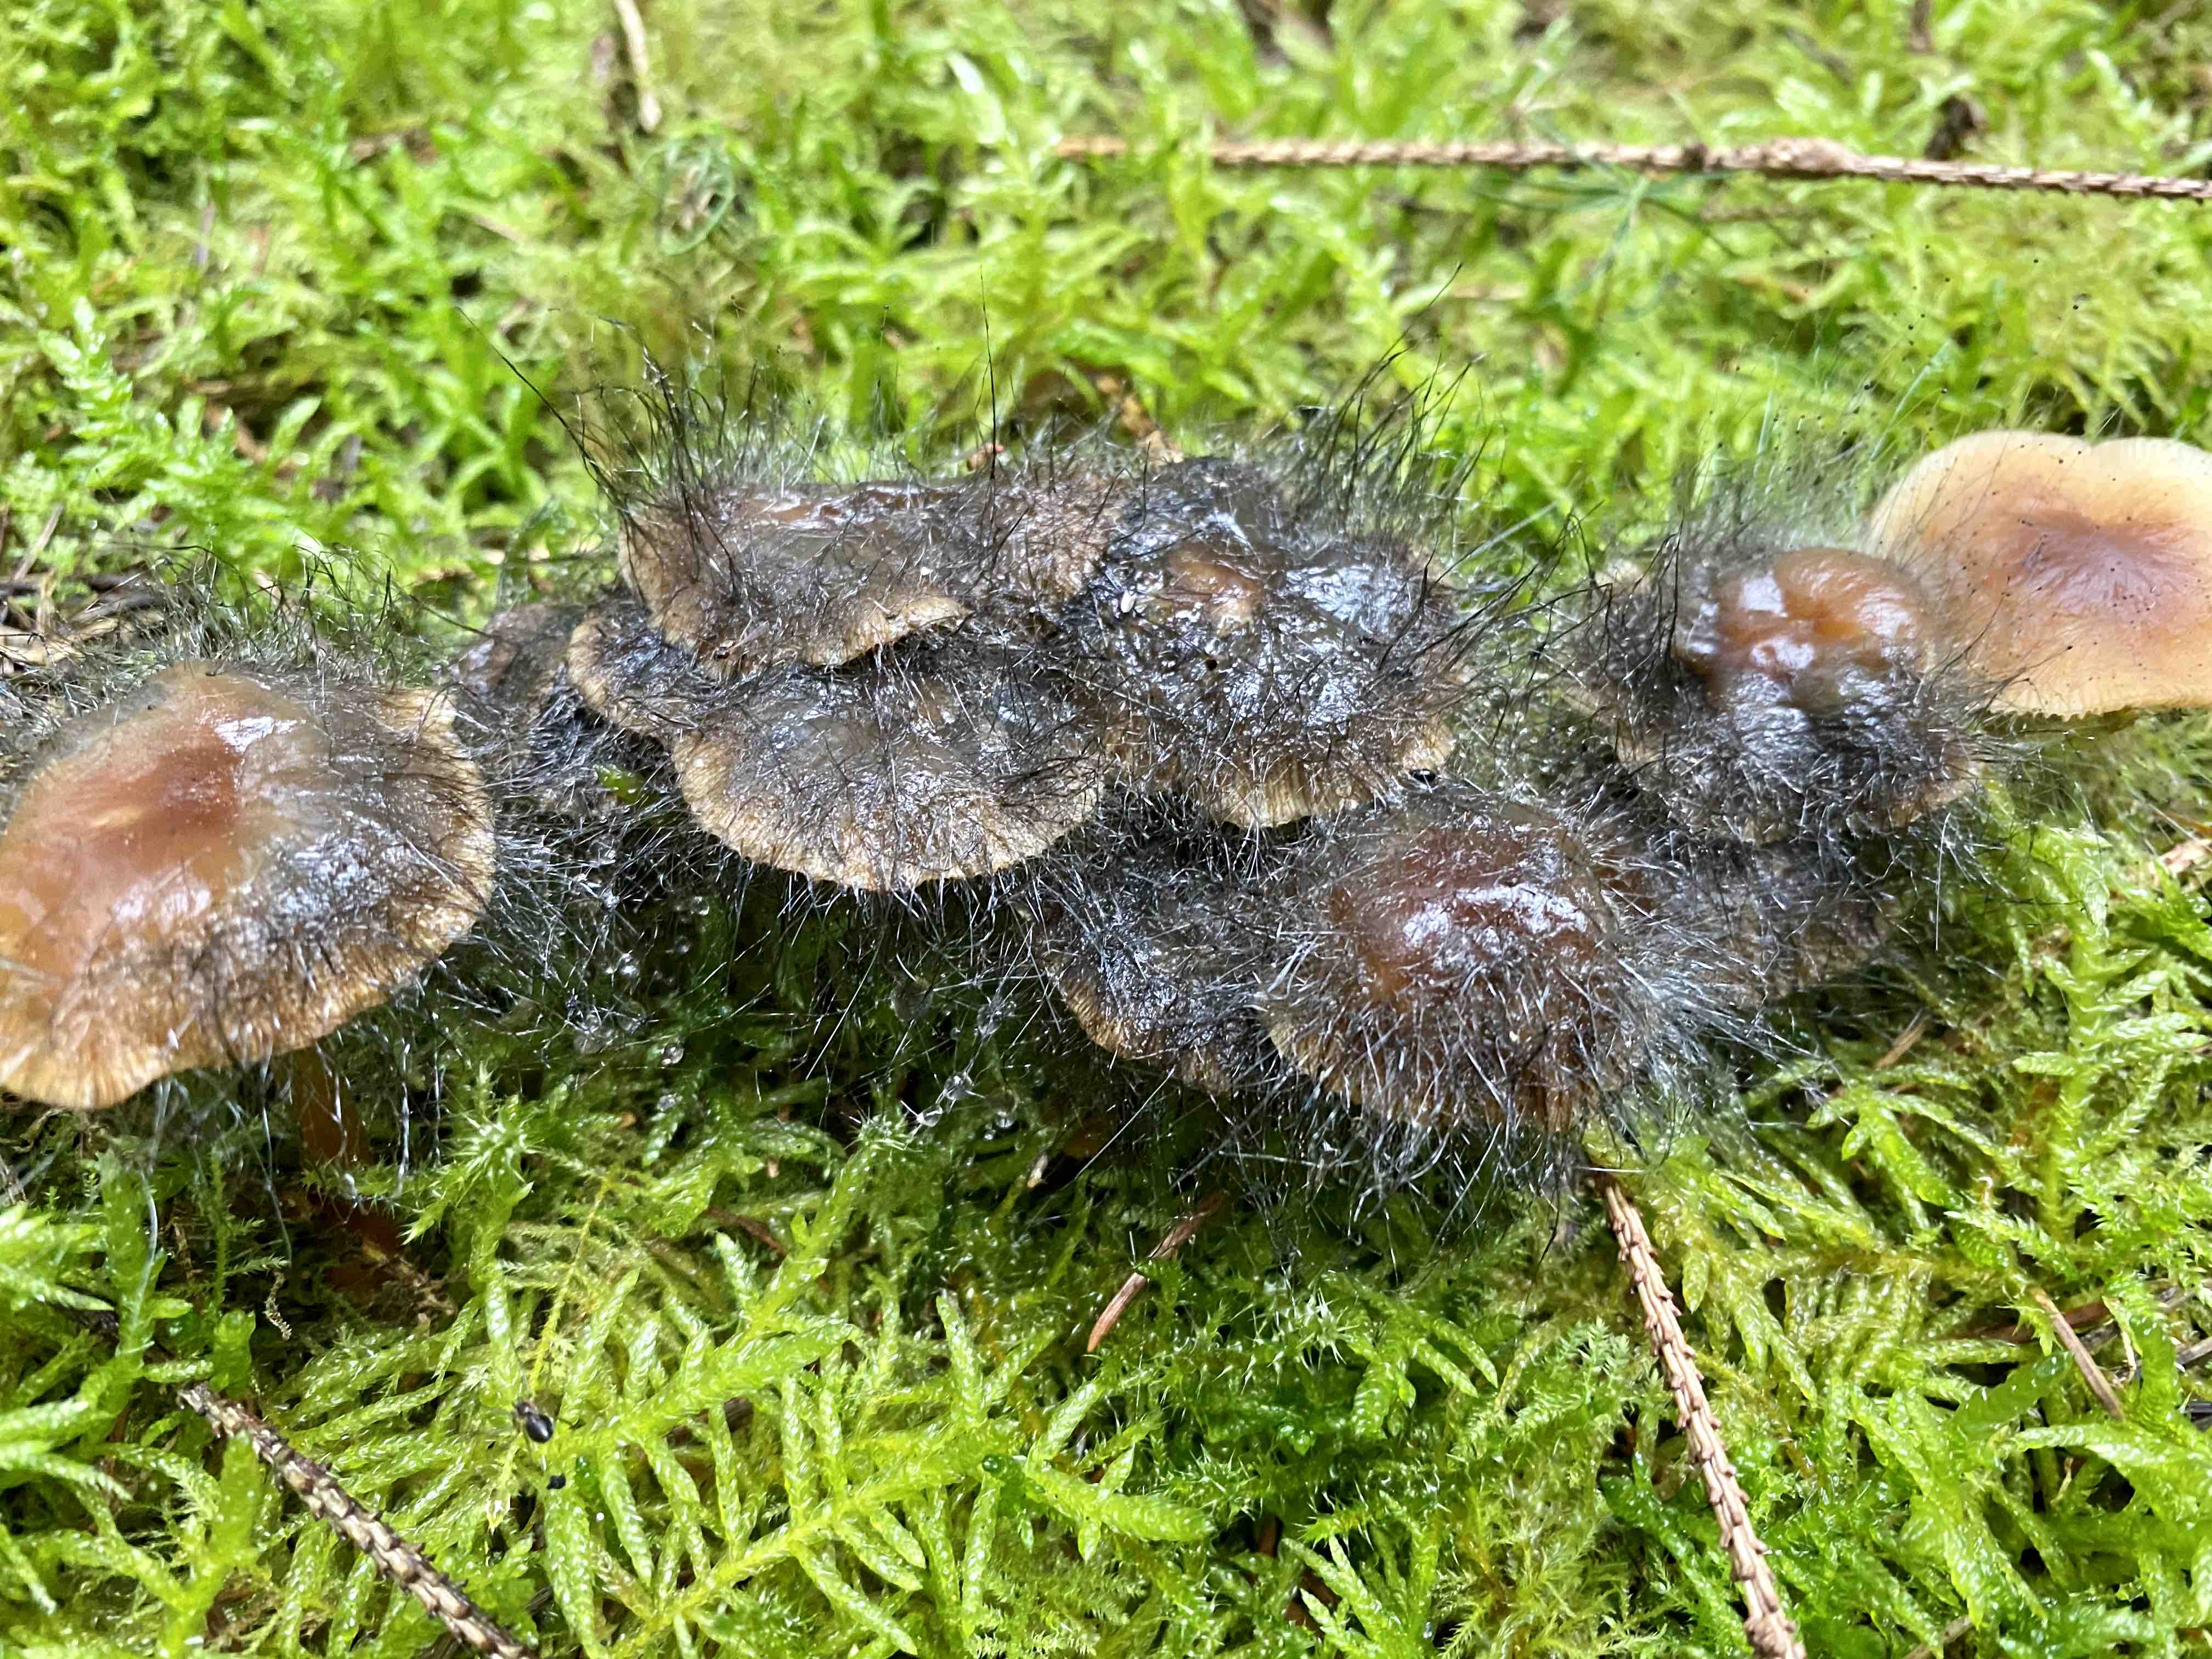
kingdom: Fungi
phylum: Mucoromycota
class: Mucoromycetes
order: Mucorales
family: Phycomycetaceae
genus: Spinellus
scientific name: Spinellus fusiger
